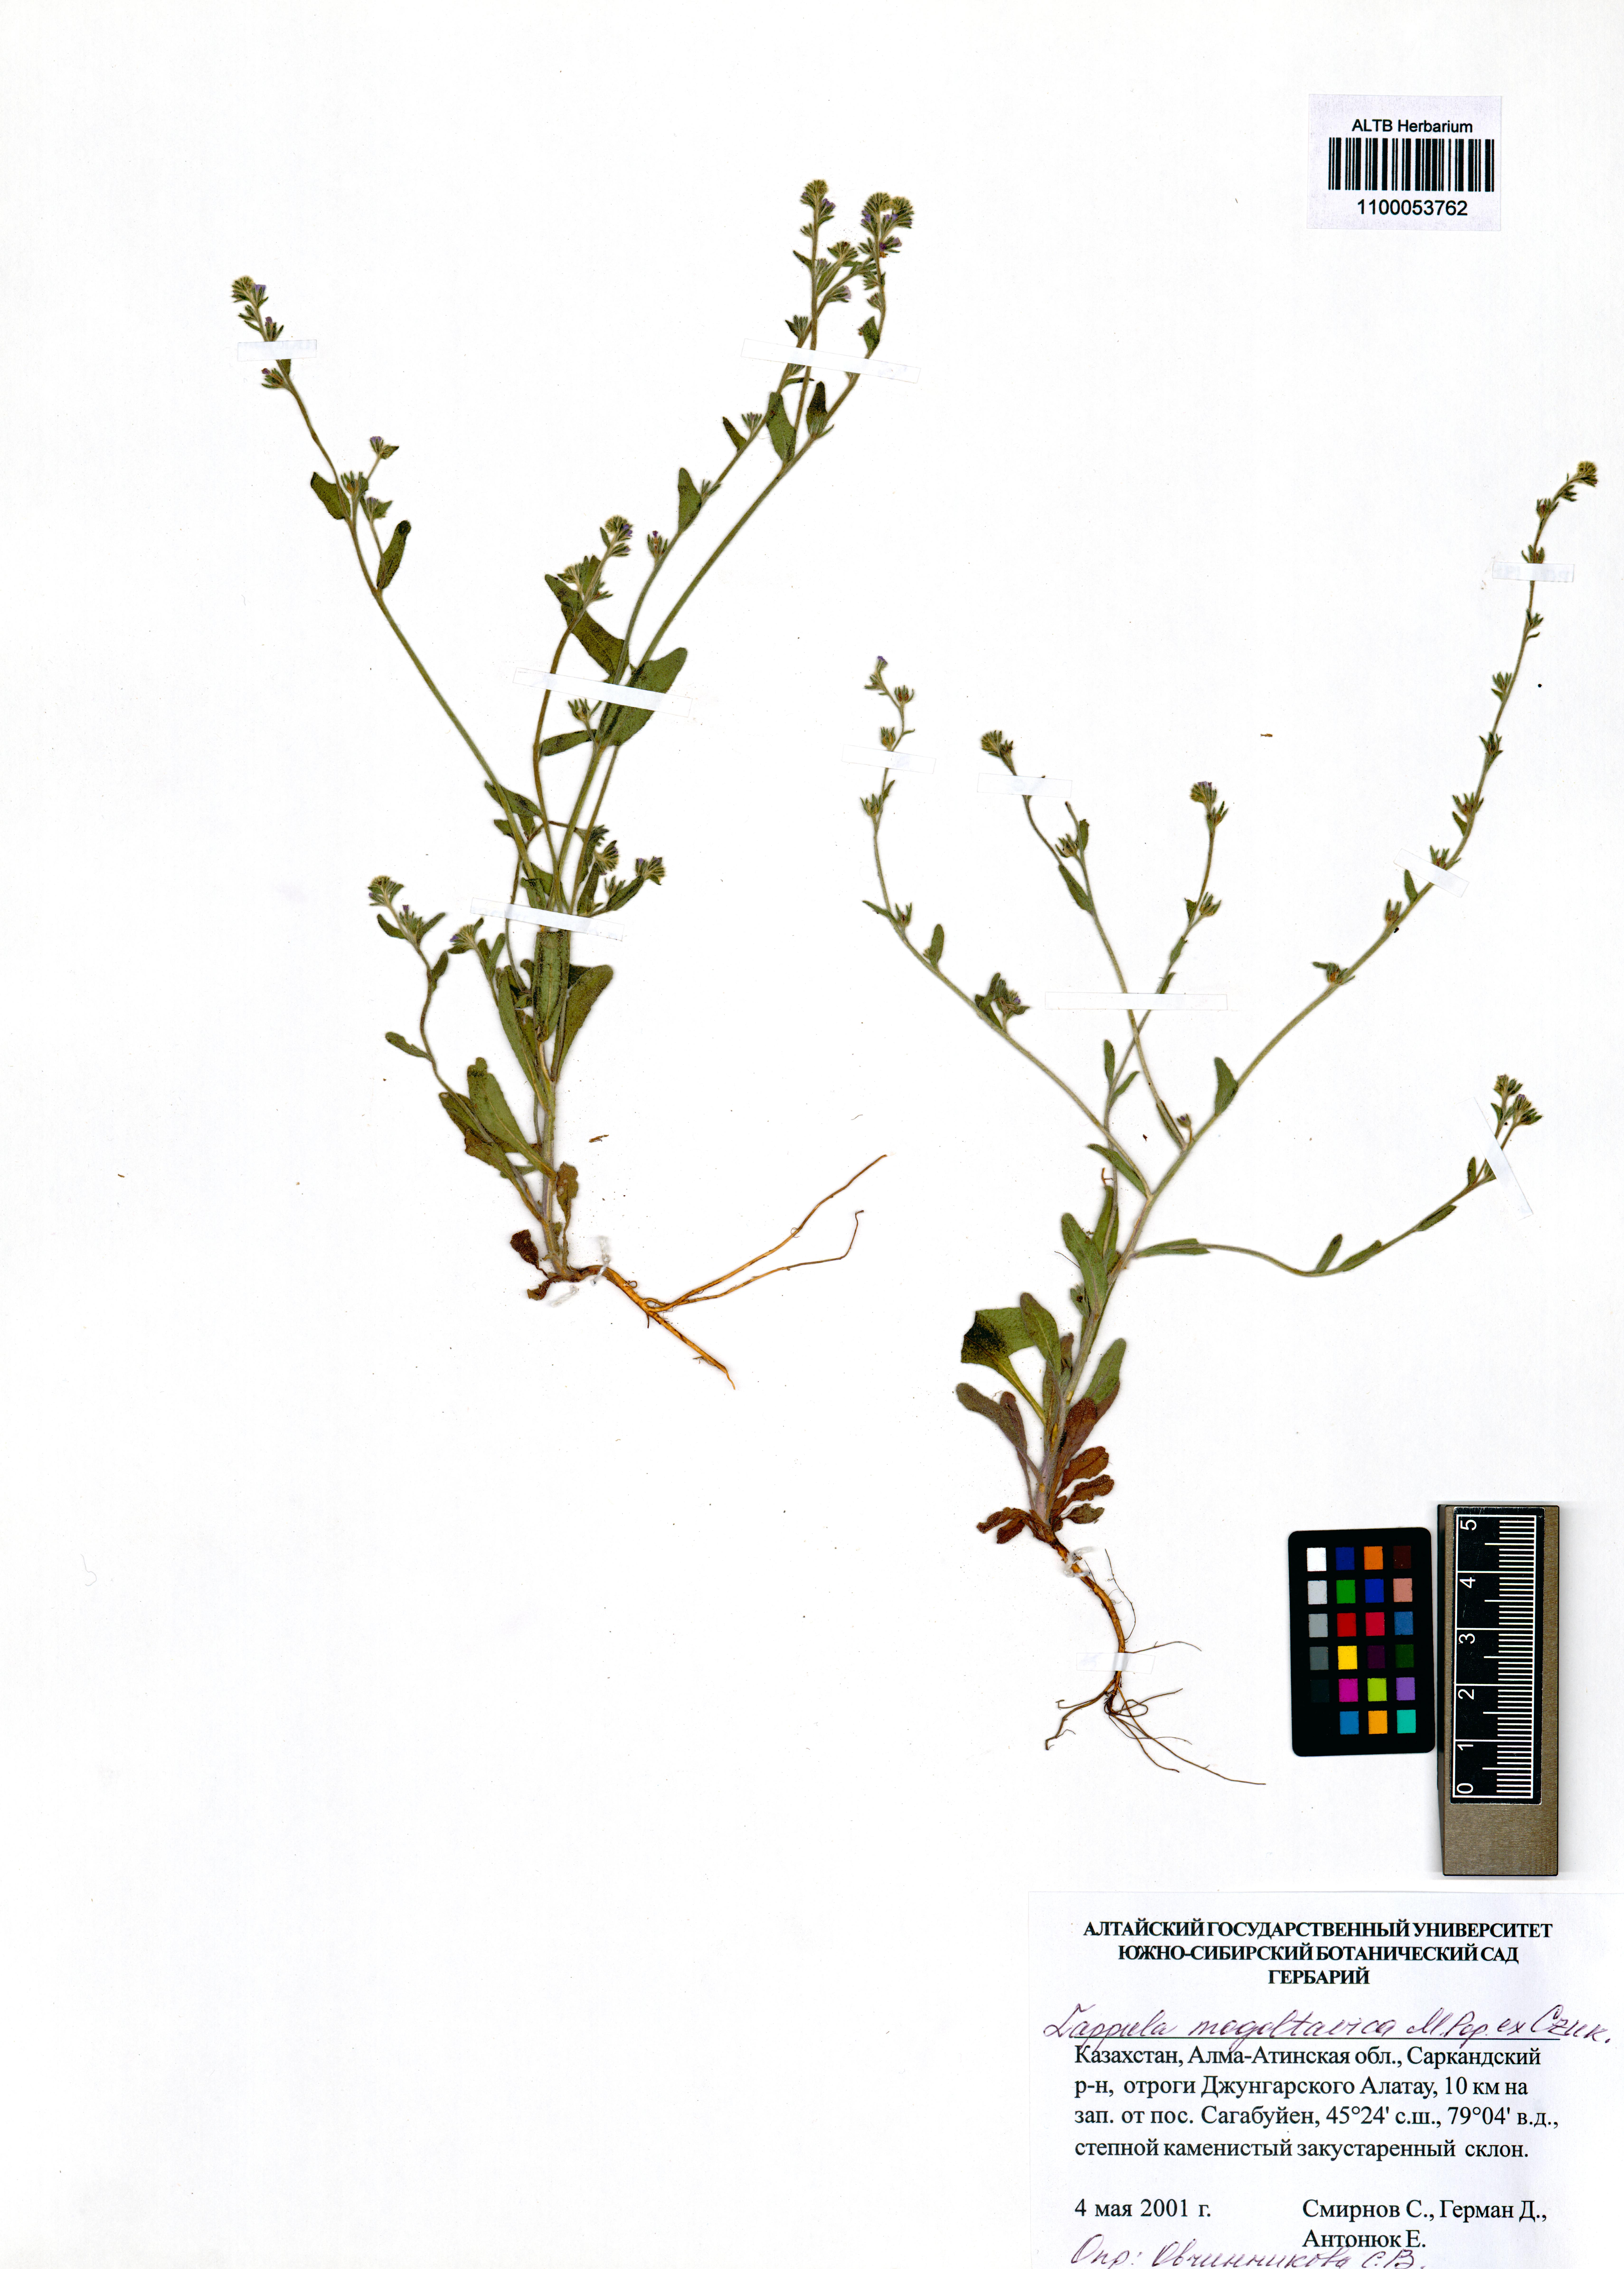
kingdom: Plantae
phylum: Tracheophyta
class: Magnoliopsida
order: Boraginales
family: Boraginaceae
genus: Lappula
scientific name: Lappula mogoltavica
